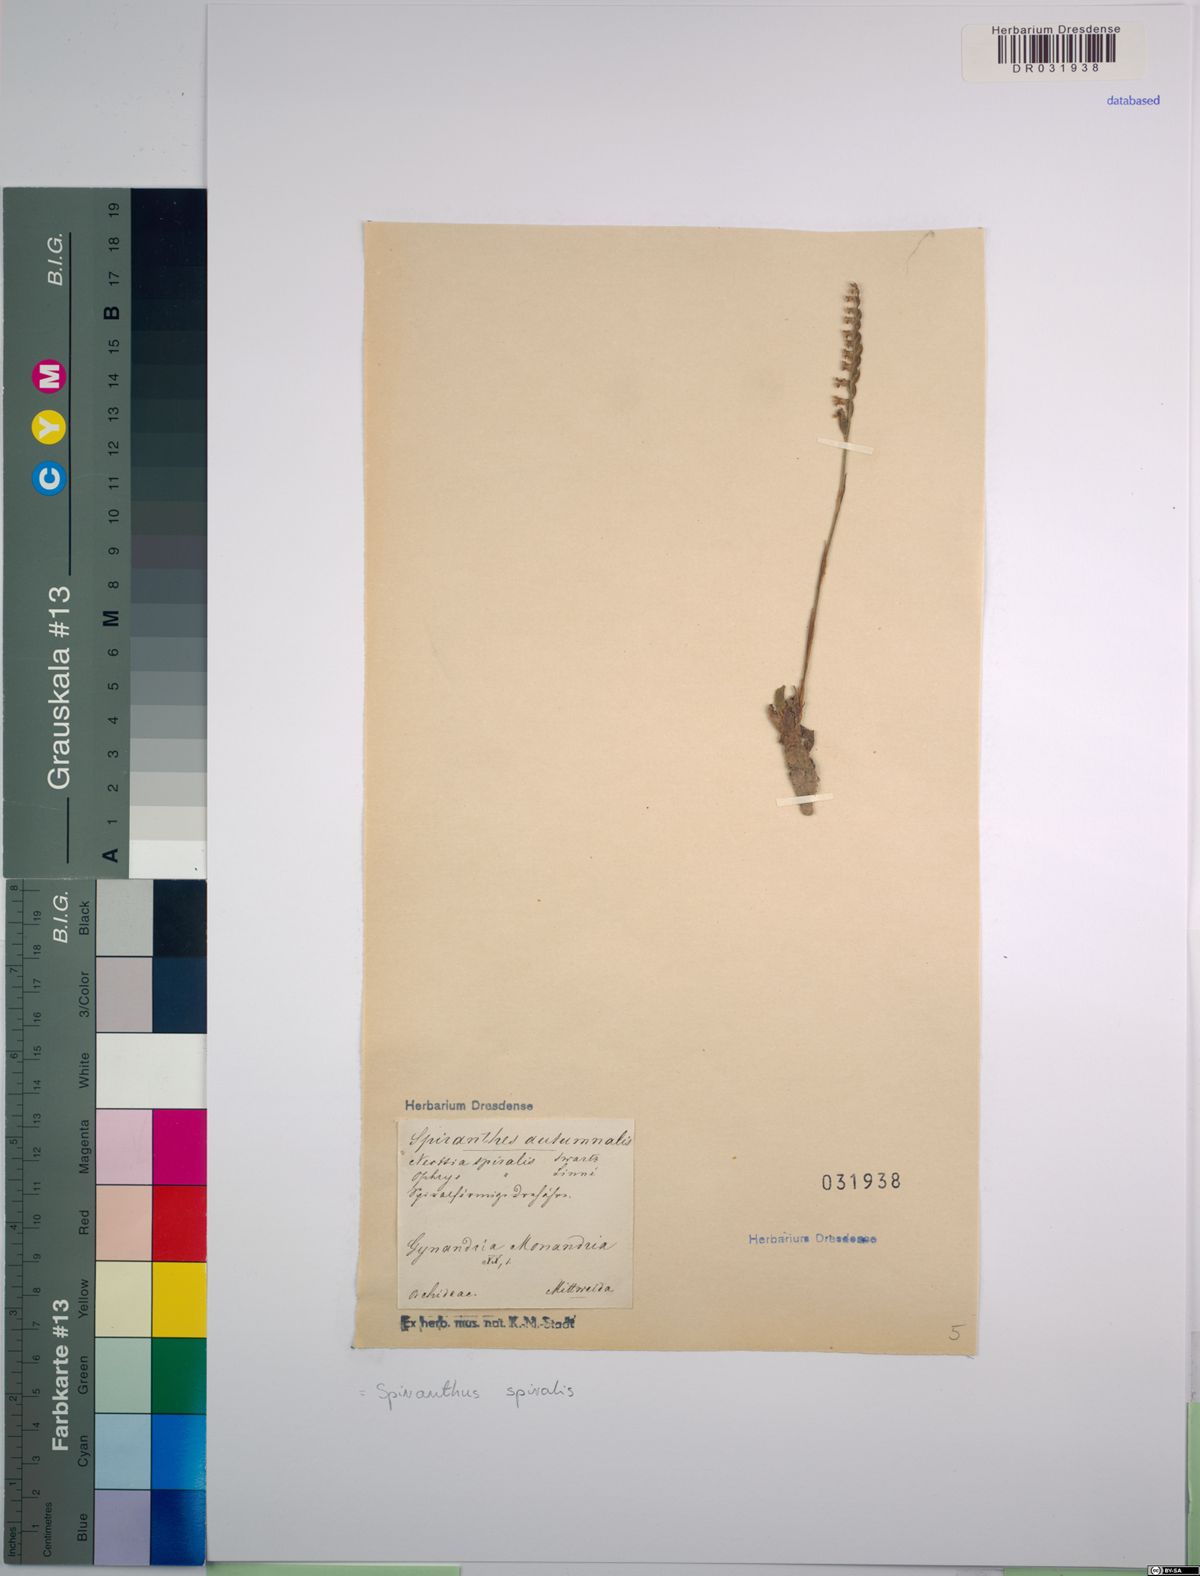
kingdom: Plantae
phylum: Tracheophyta
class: Liliopsida
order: Asparagales
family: Orchidaceae
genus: Spiranthes
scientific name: Spiranthes spiralis
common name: Autumn lady's-tresses
